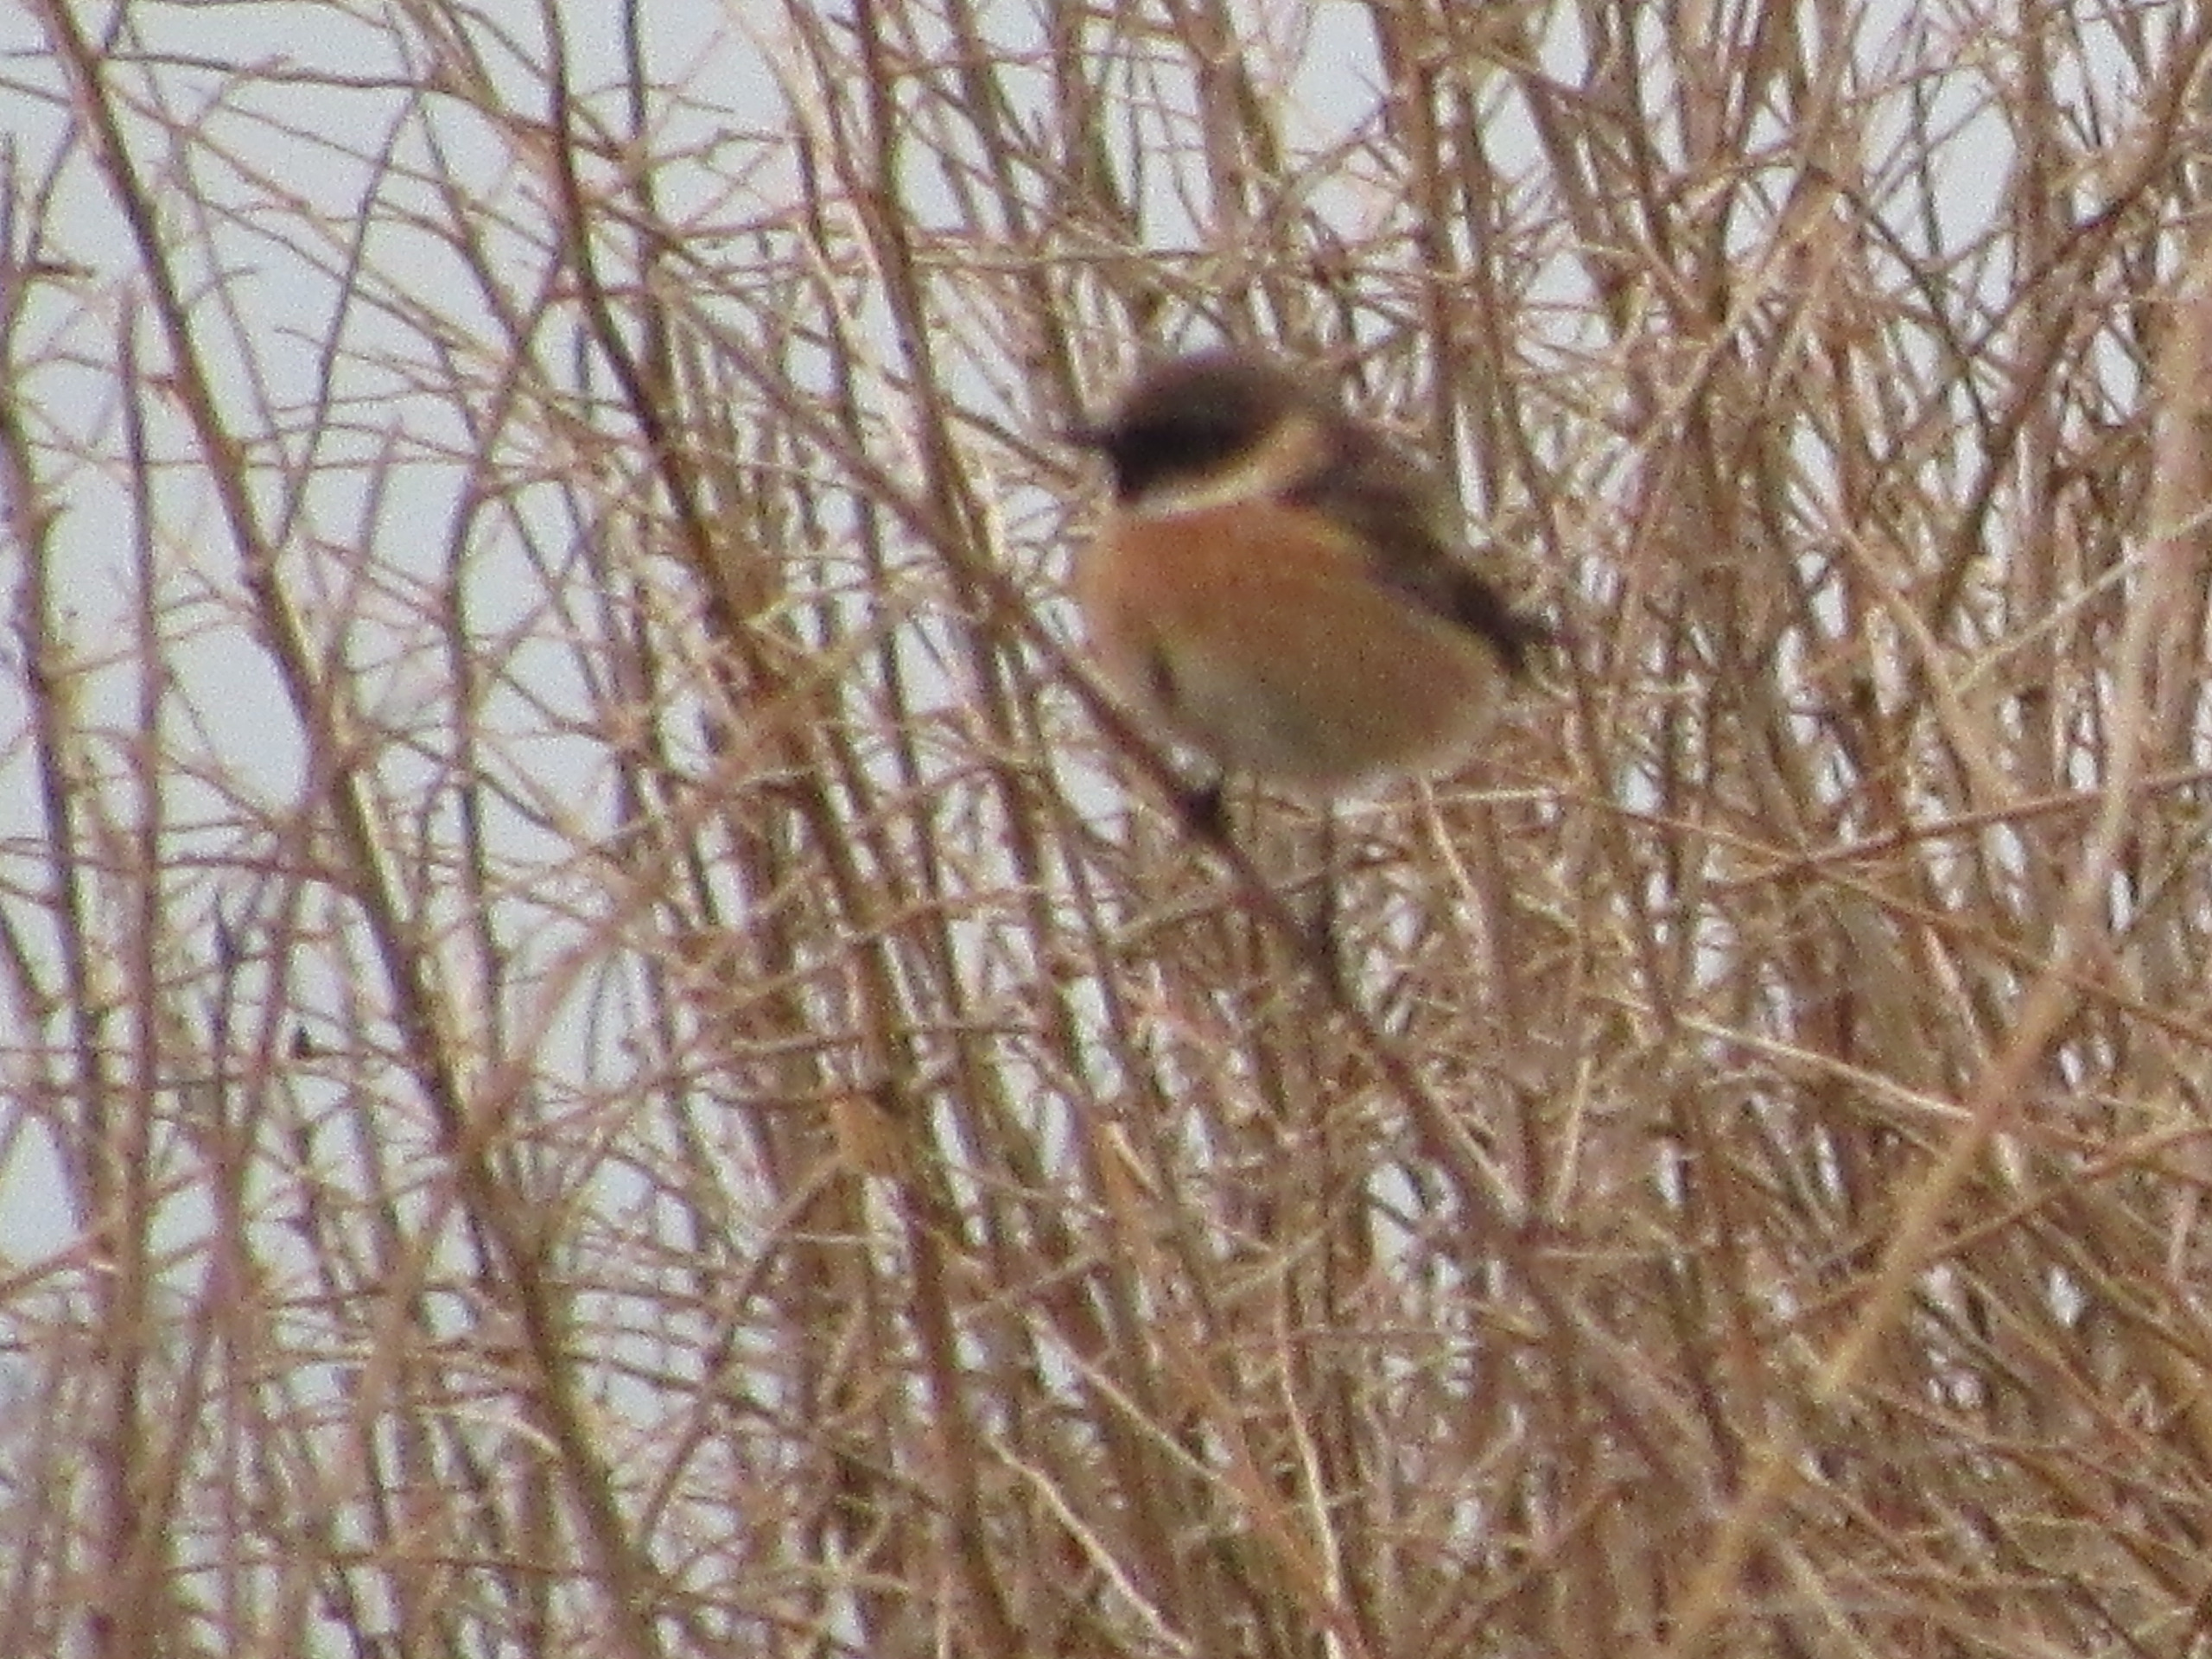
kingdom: Animalia
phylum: Chordata
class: Aves
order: Passeriformes
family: Muscicapidae
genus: Saxicola
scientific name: Saxicola rubicola
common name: Sortstrubet bynkefugl
